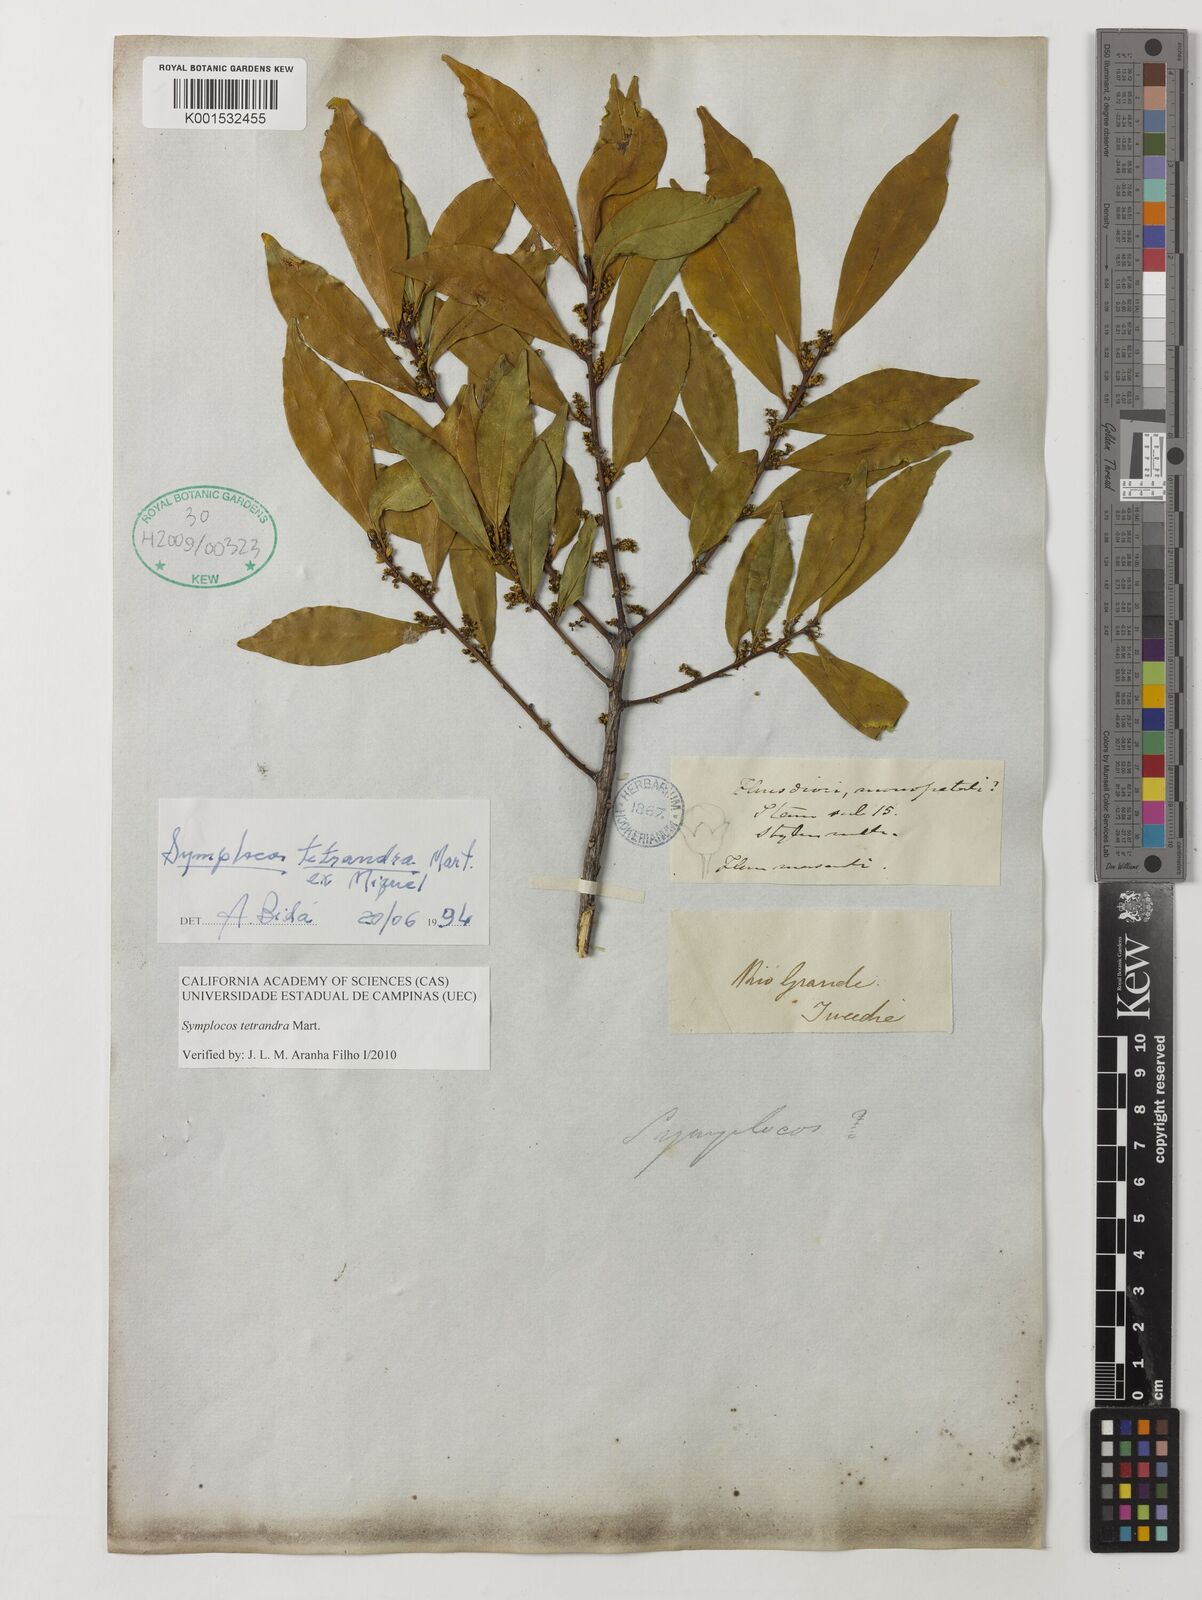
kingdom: Plantae
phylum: Tracheophyta
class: Magnoliopsida
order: Ericales
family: Symplocaceae
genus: Symplocos
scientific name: Symplocos tetrandra
